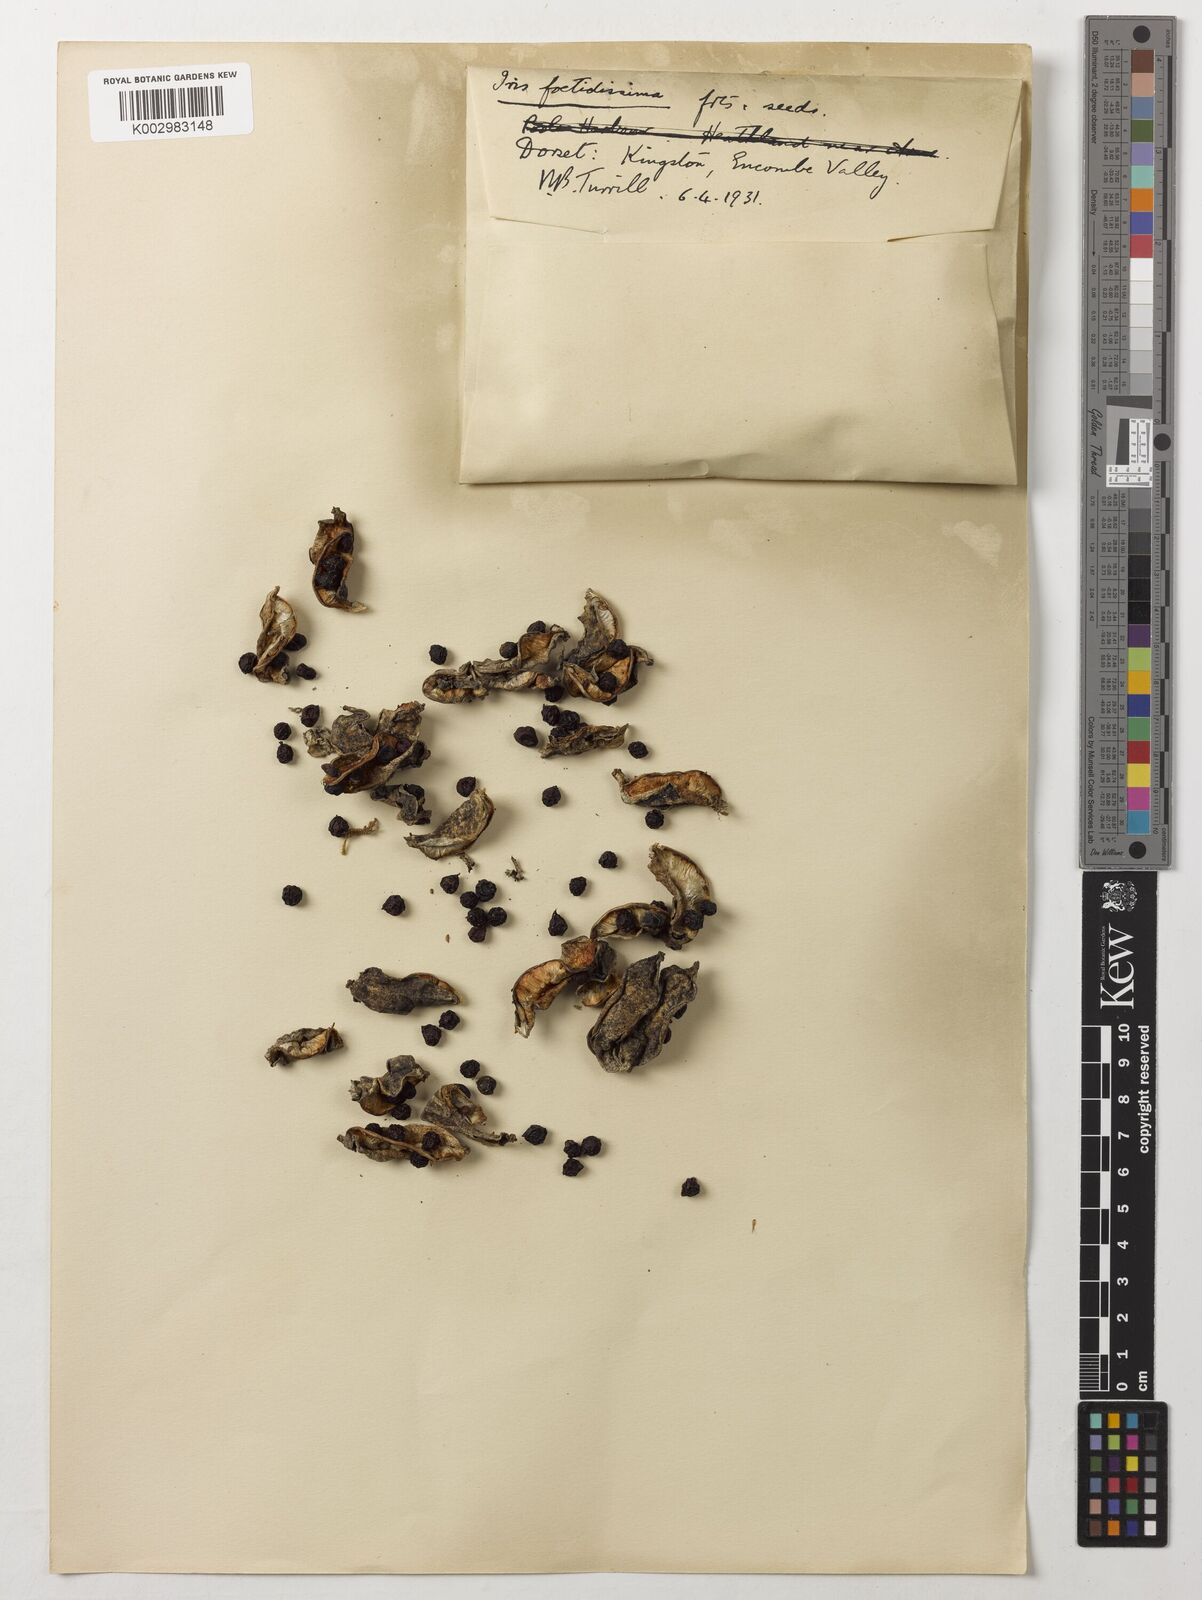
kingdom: Plantae
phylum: Tracheophyta
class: Liliopsida
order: Asparagales
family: Iridaceae
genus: Iris
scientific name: Iris foetidissima
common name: Stinking iris
